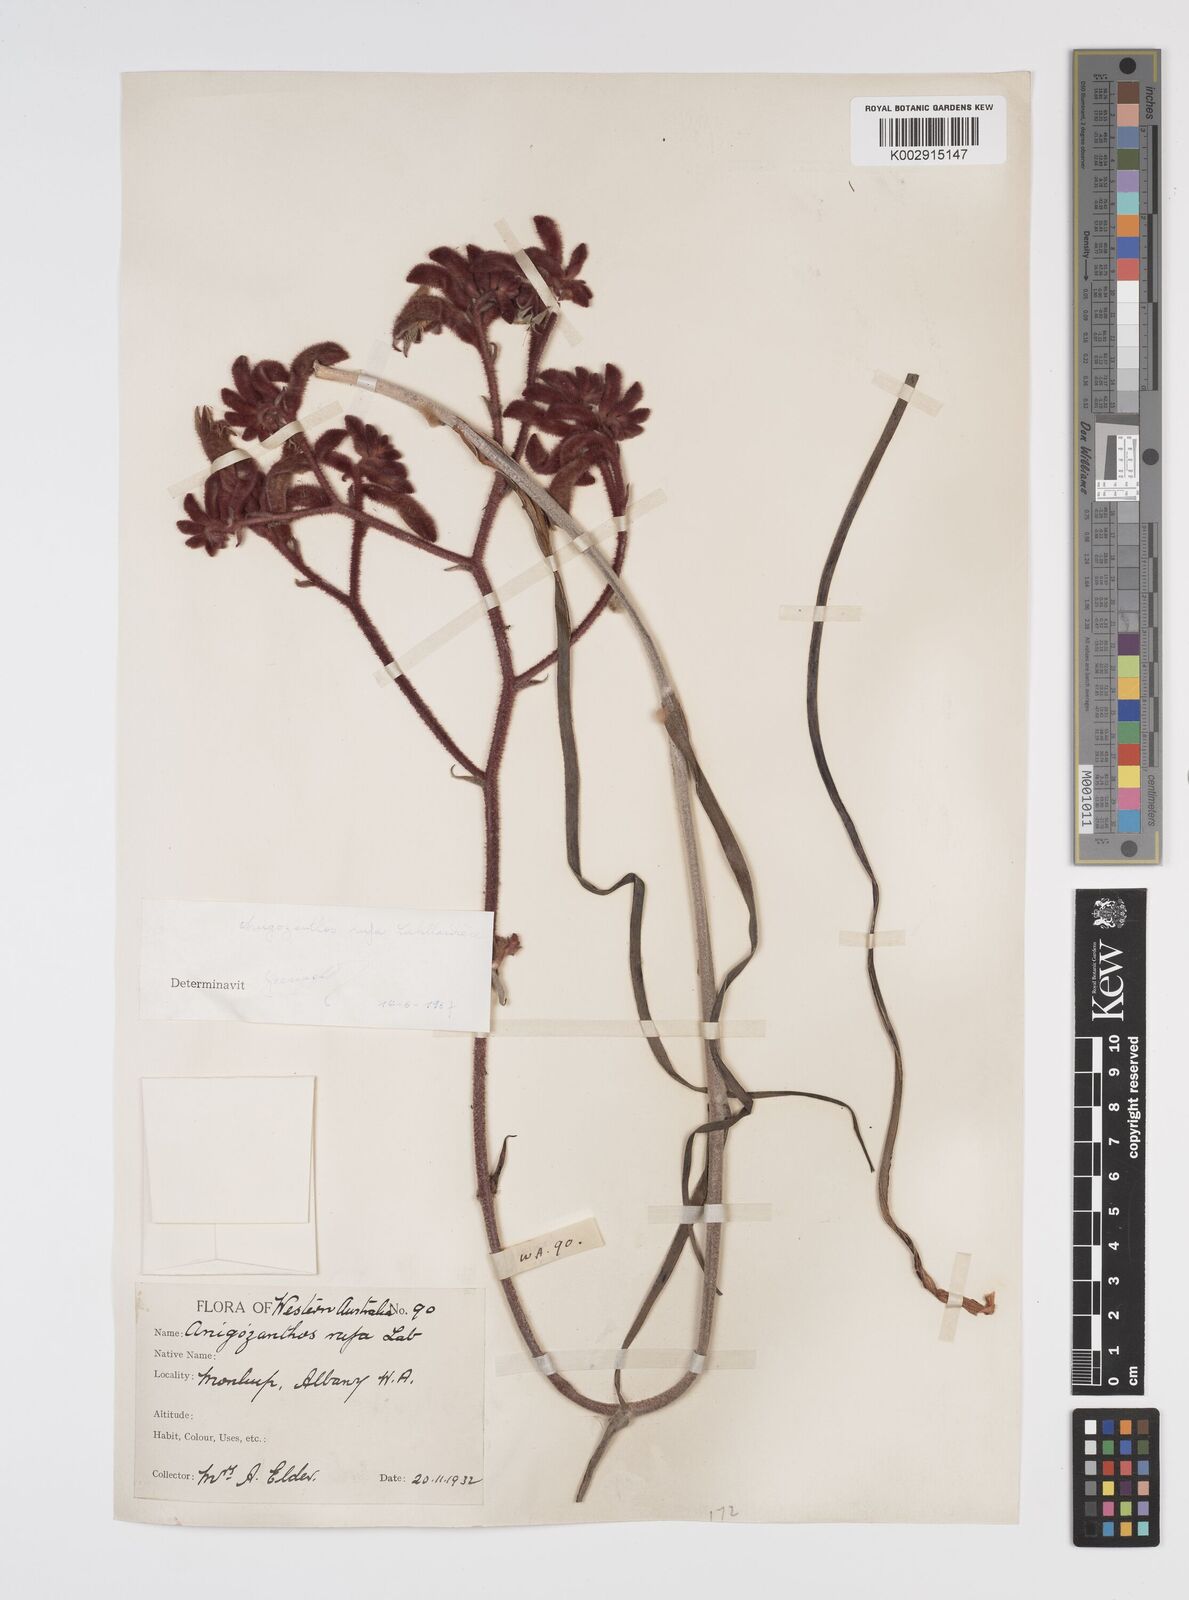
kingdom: Plantae
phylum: Tracheophyta
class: Liliopsida
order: Commelinales
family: Haemodoraceae
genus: Anigozanthos
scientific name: Anigozanthos rufus
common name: Red kangaroo-paw
